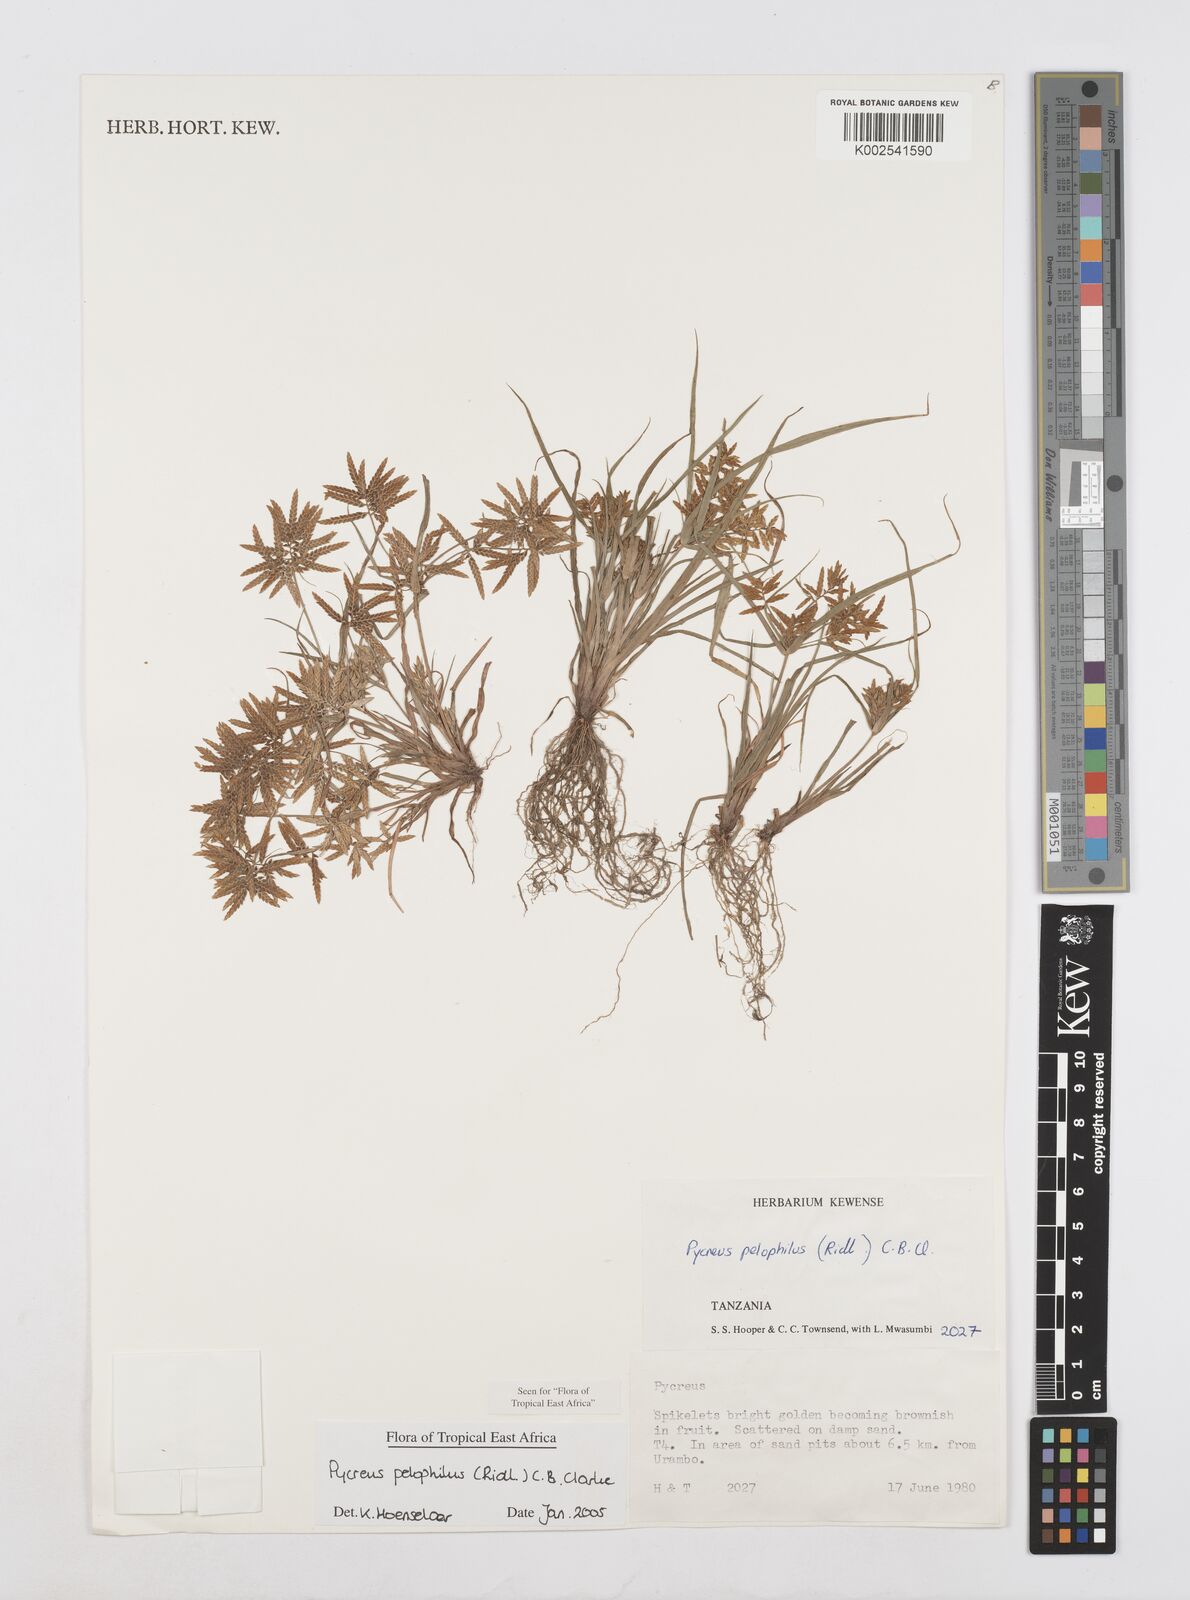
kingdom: Plantae
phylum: Tracheophyta
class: Liliopsida
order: Poales
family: Cyperaceae
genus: Cyperus
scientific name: Cyperus pelophilus
